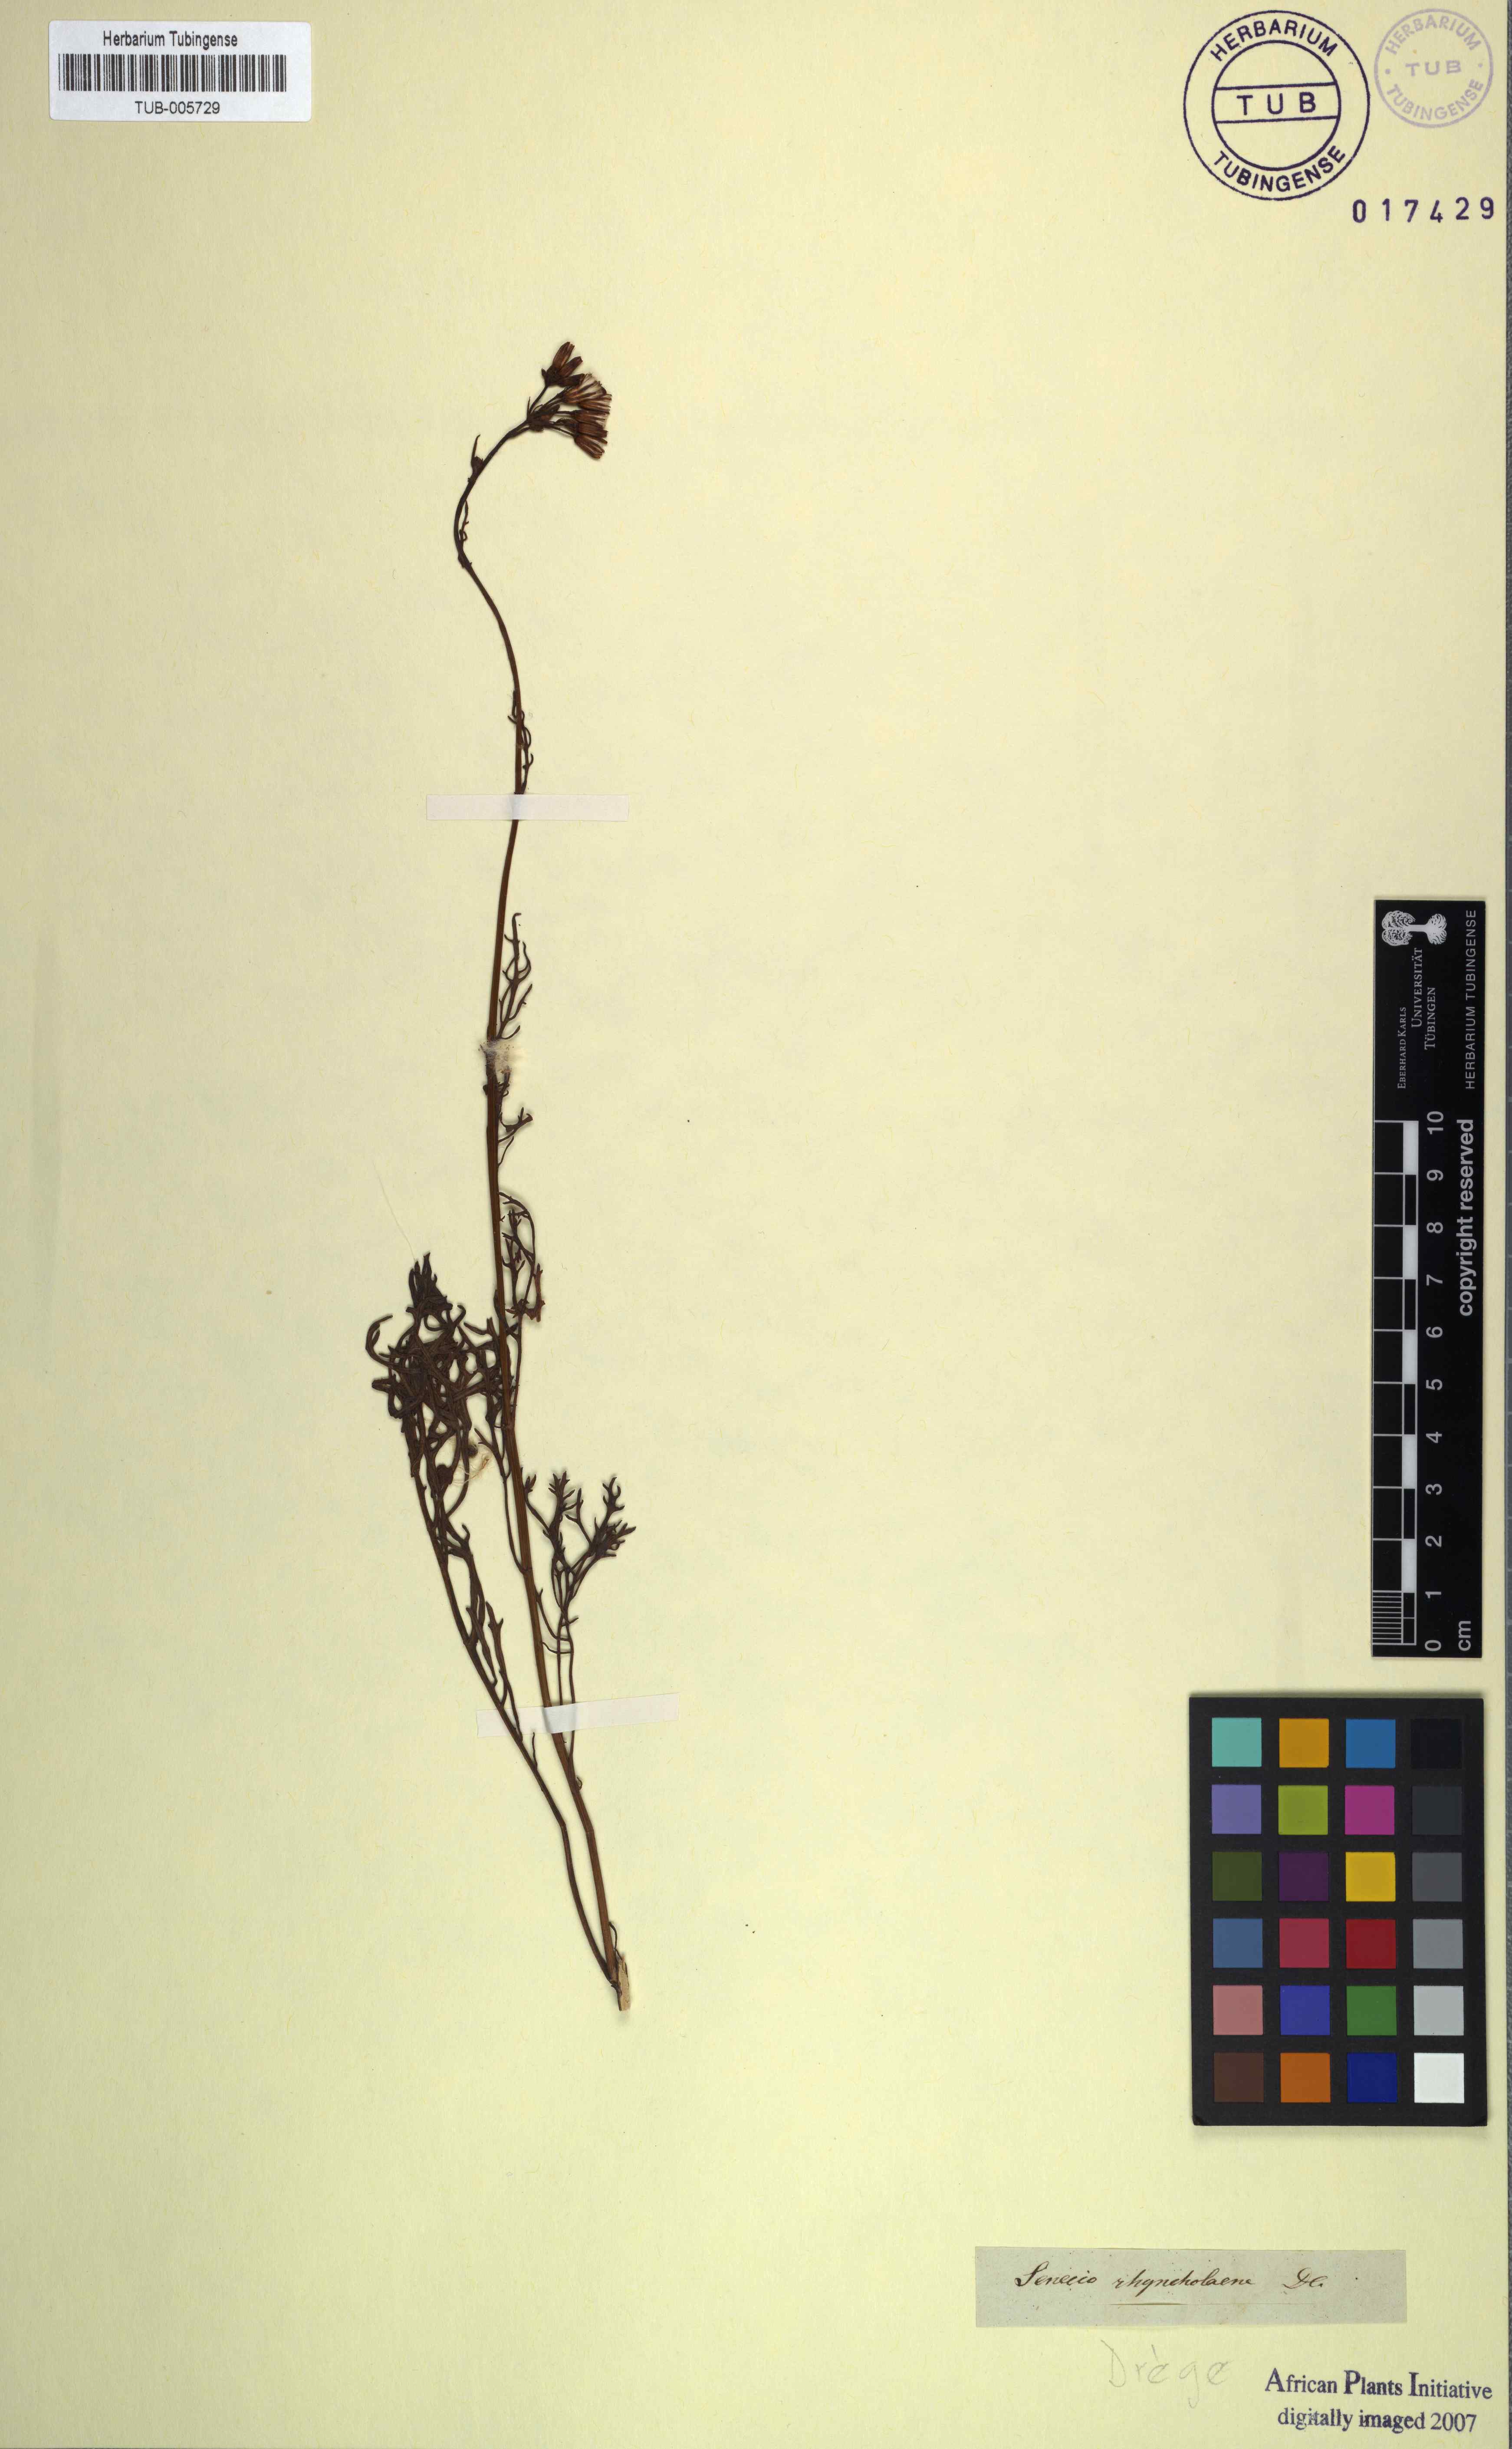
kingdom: Plantae
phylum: Tracheophyta
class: Magnoliopsida
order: Asterales
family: Asteraceae
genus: Senecio
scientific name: Senecio rhyncholaenus
